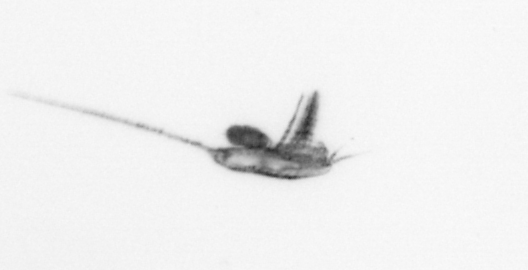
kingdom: Animalia
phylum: Arthropoda
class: Copepoda
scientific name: Copepoda
